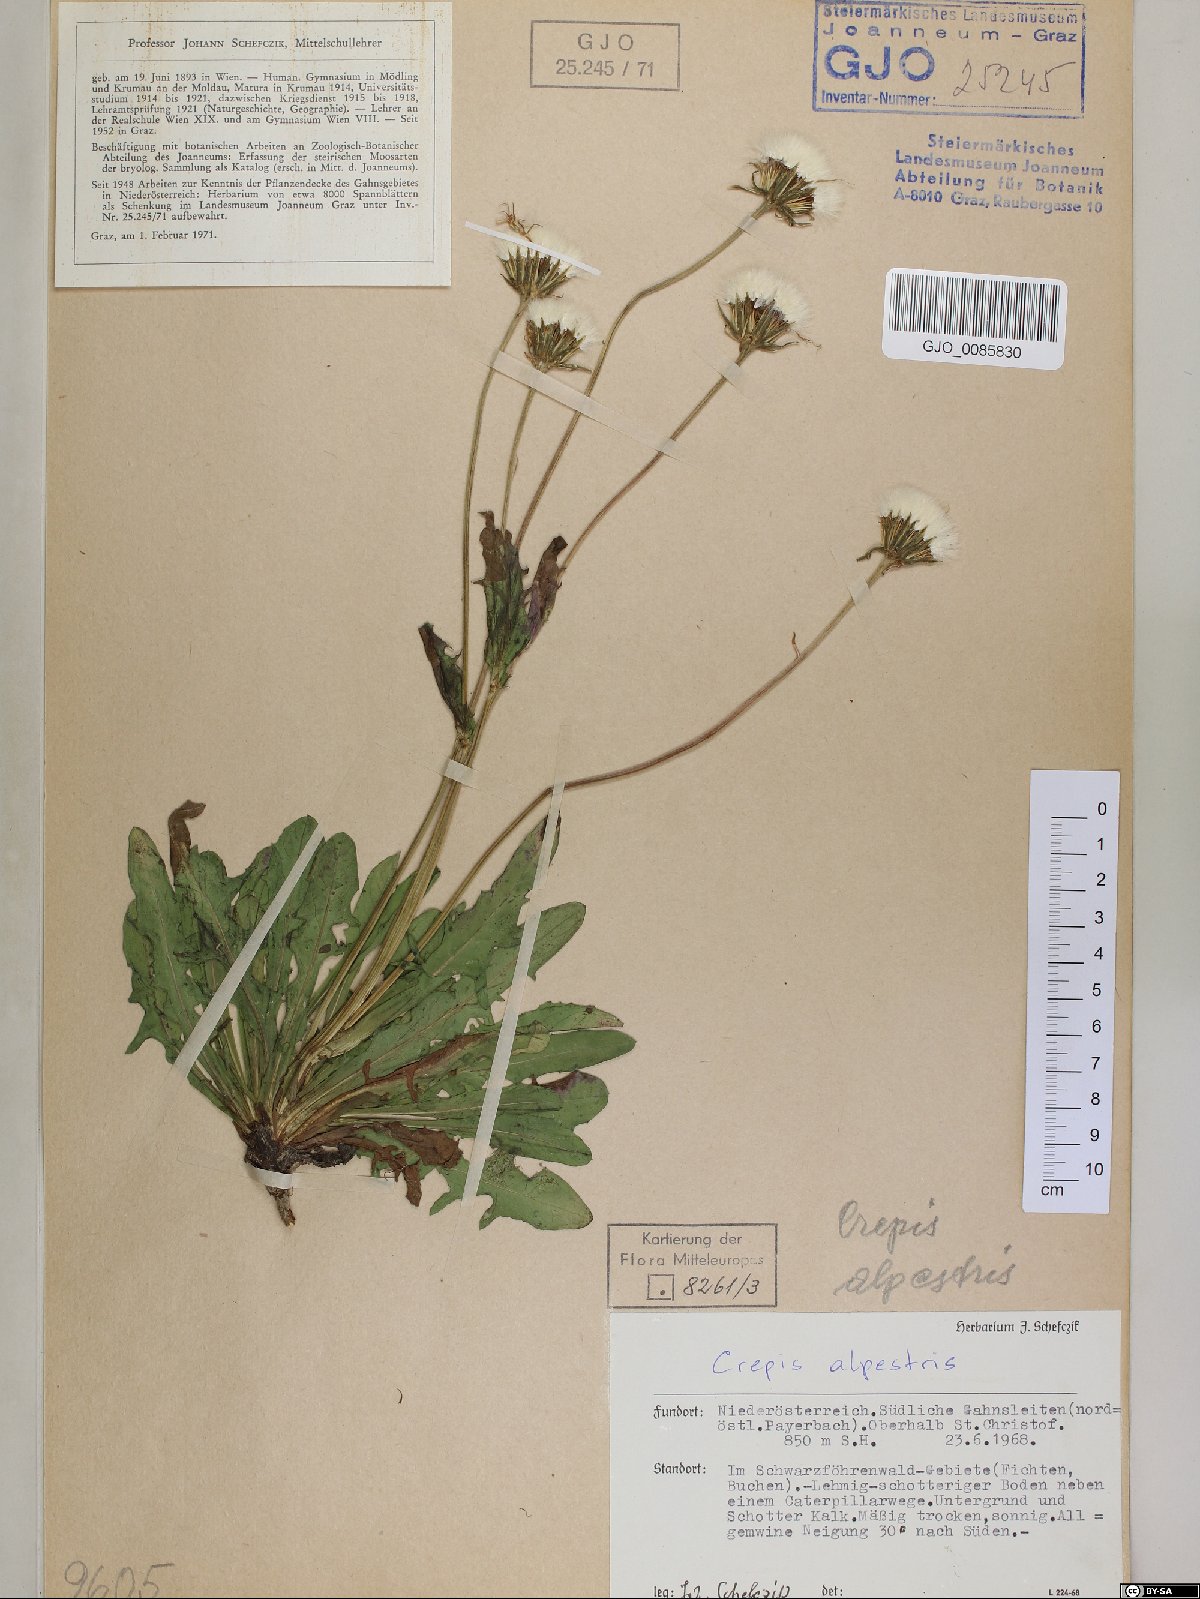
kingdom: Plantae
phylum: Tracheophyta
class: Magnoliopsida
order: Asterales
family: Asteraceae
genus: Crepis
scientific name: Crepis alpestris
